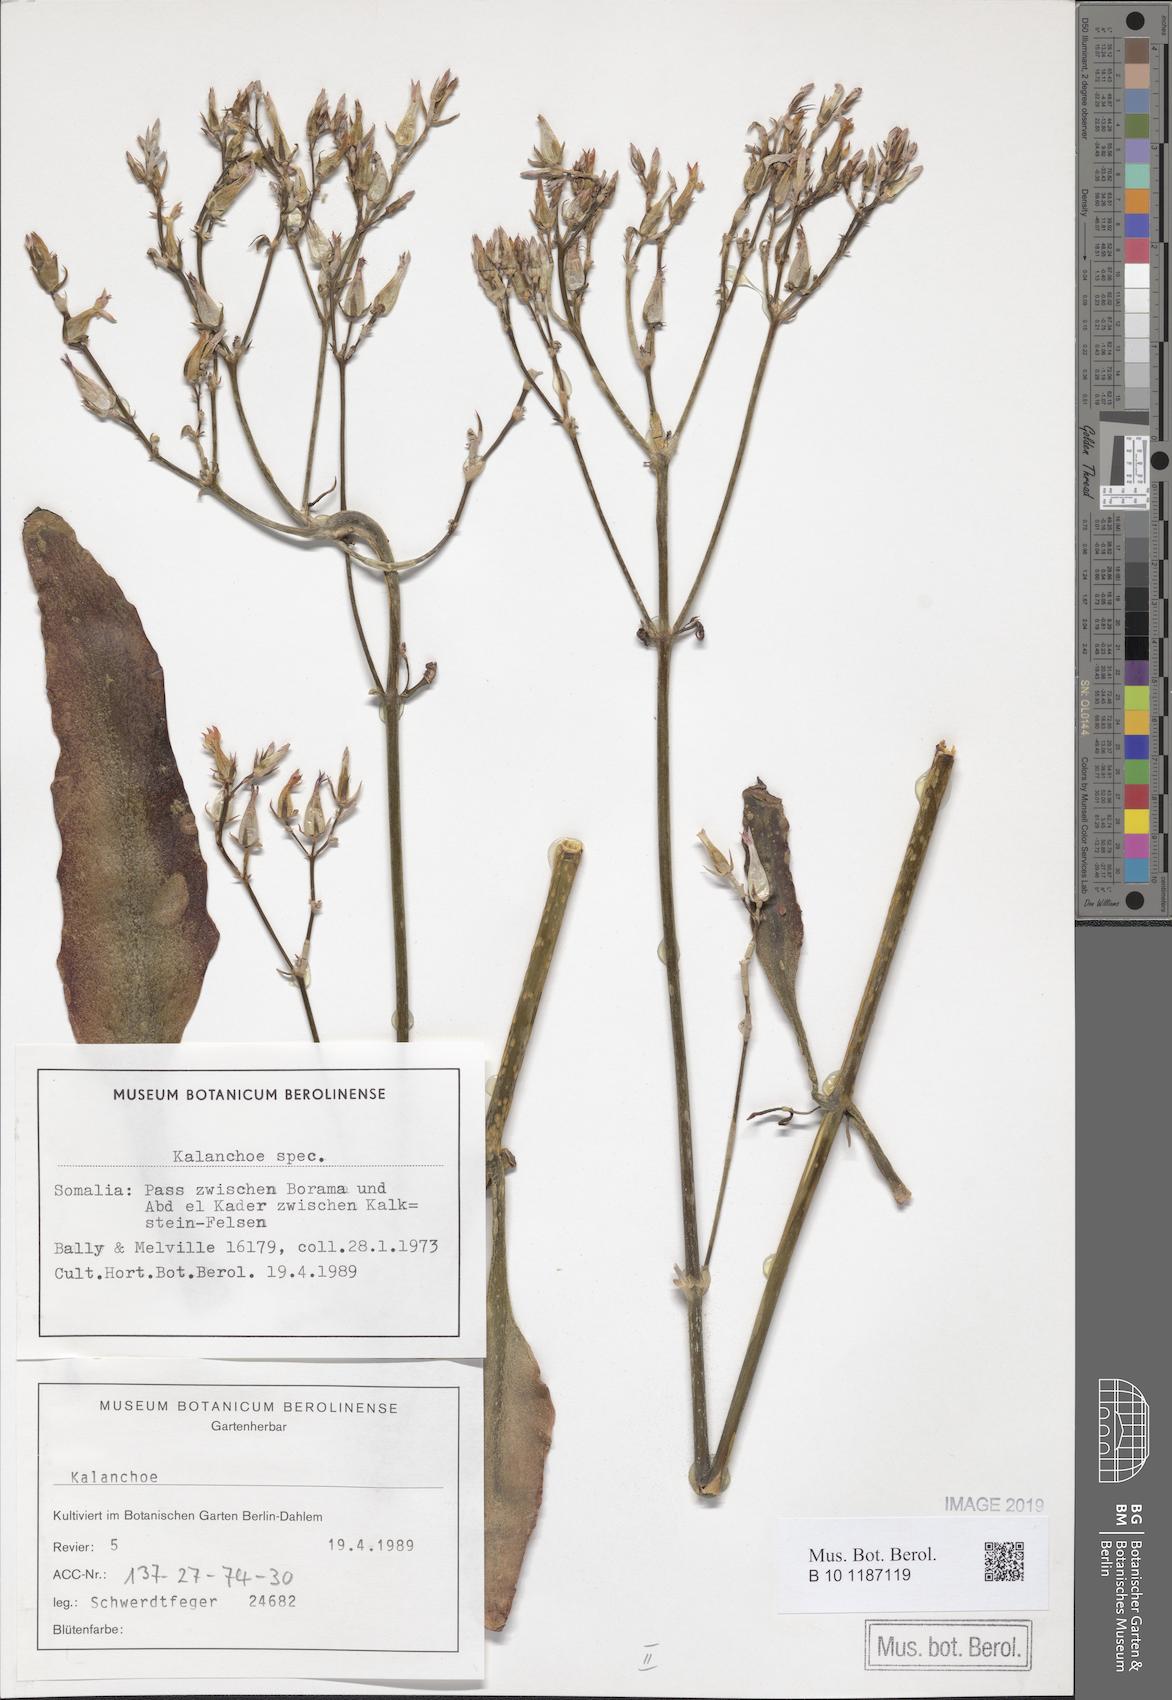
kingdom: Plantae
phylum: Tracheophyta
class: Magnoliopsida
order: Saxifragales
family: Crassulaceae
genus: Kalanchoe
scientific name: Kalanchoe
